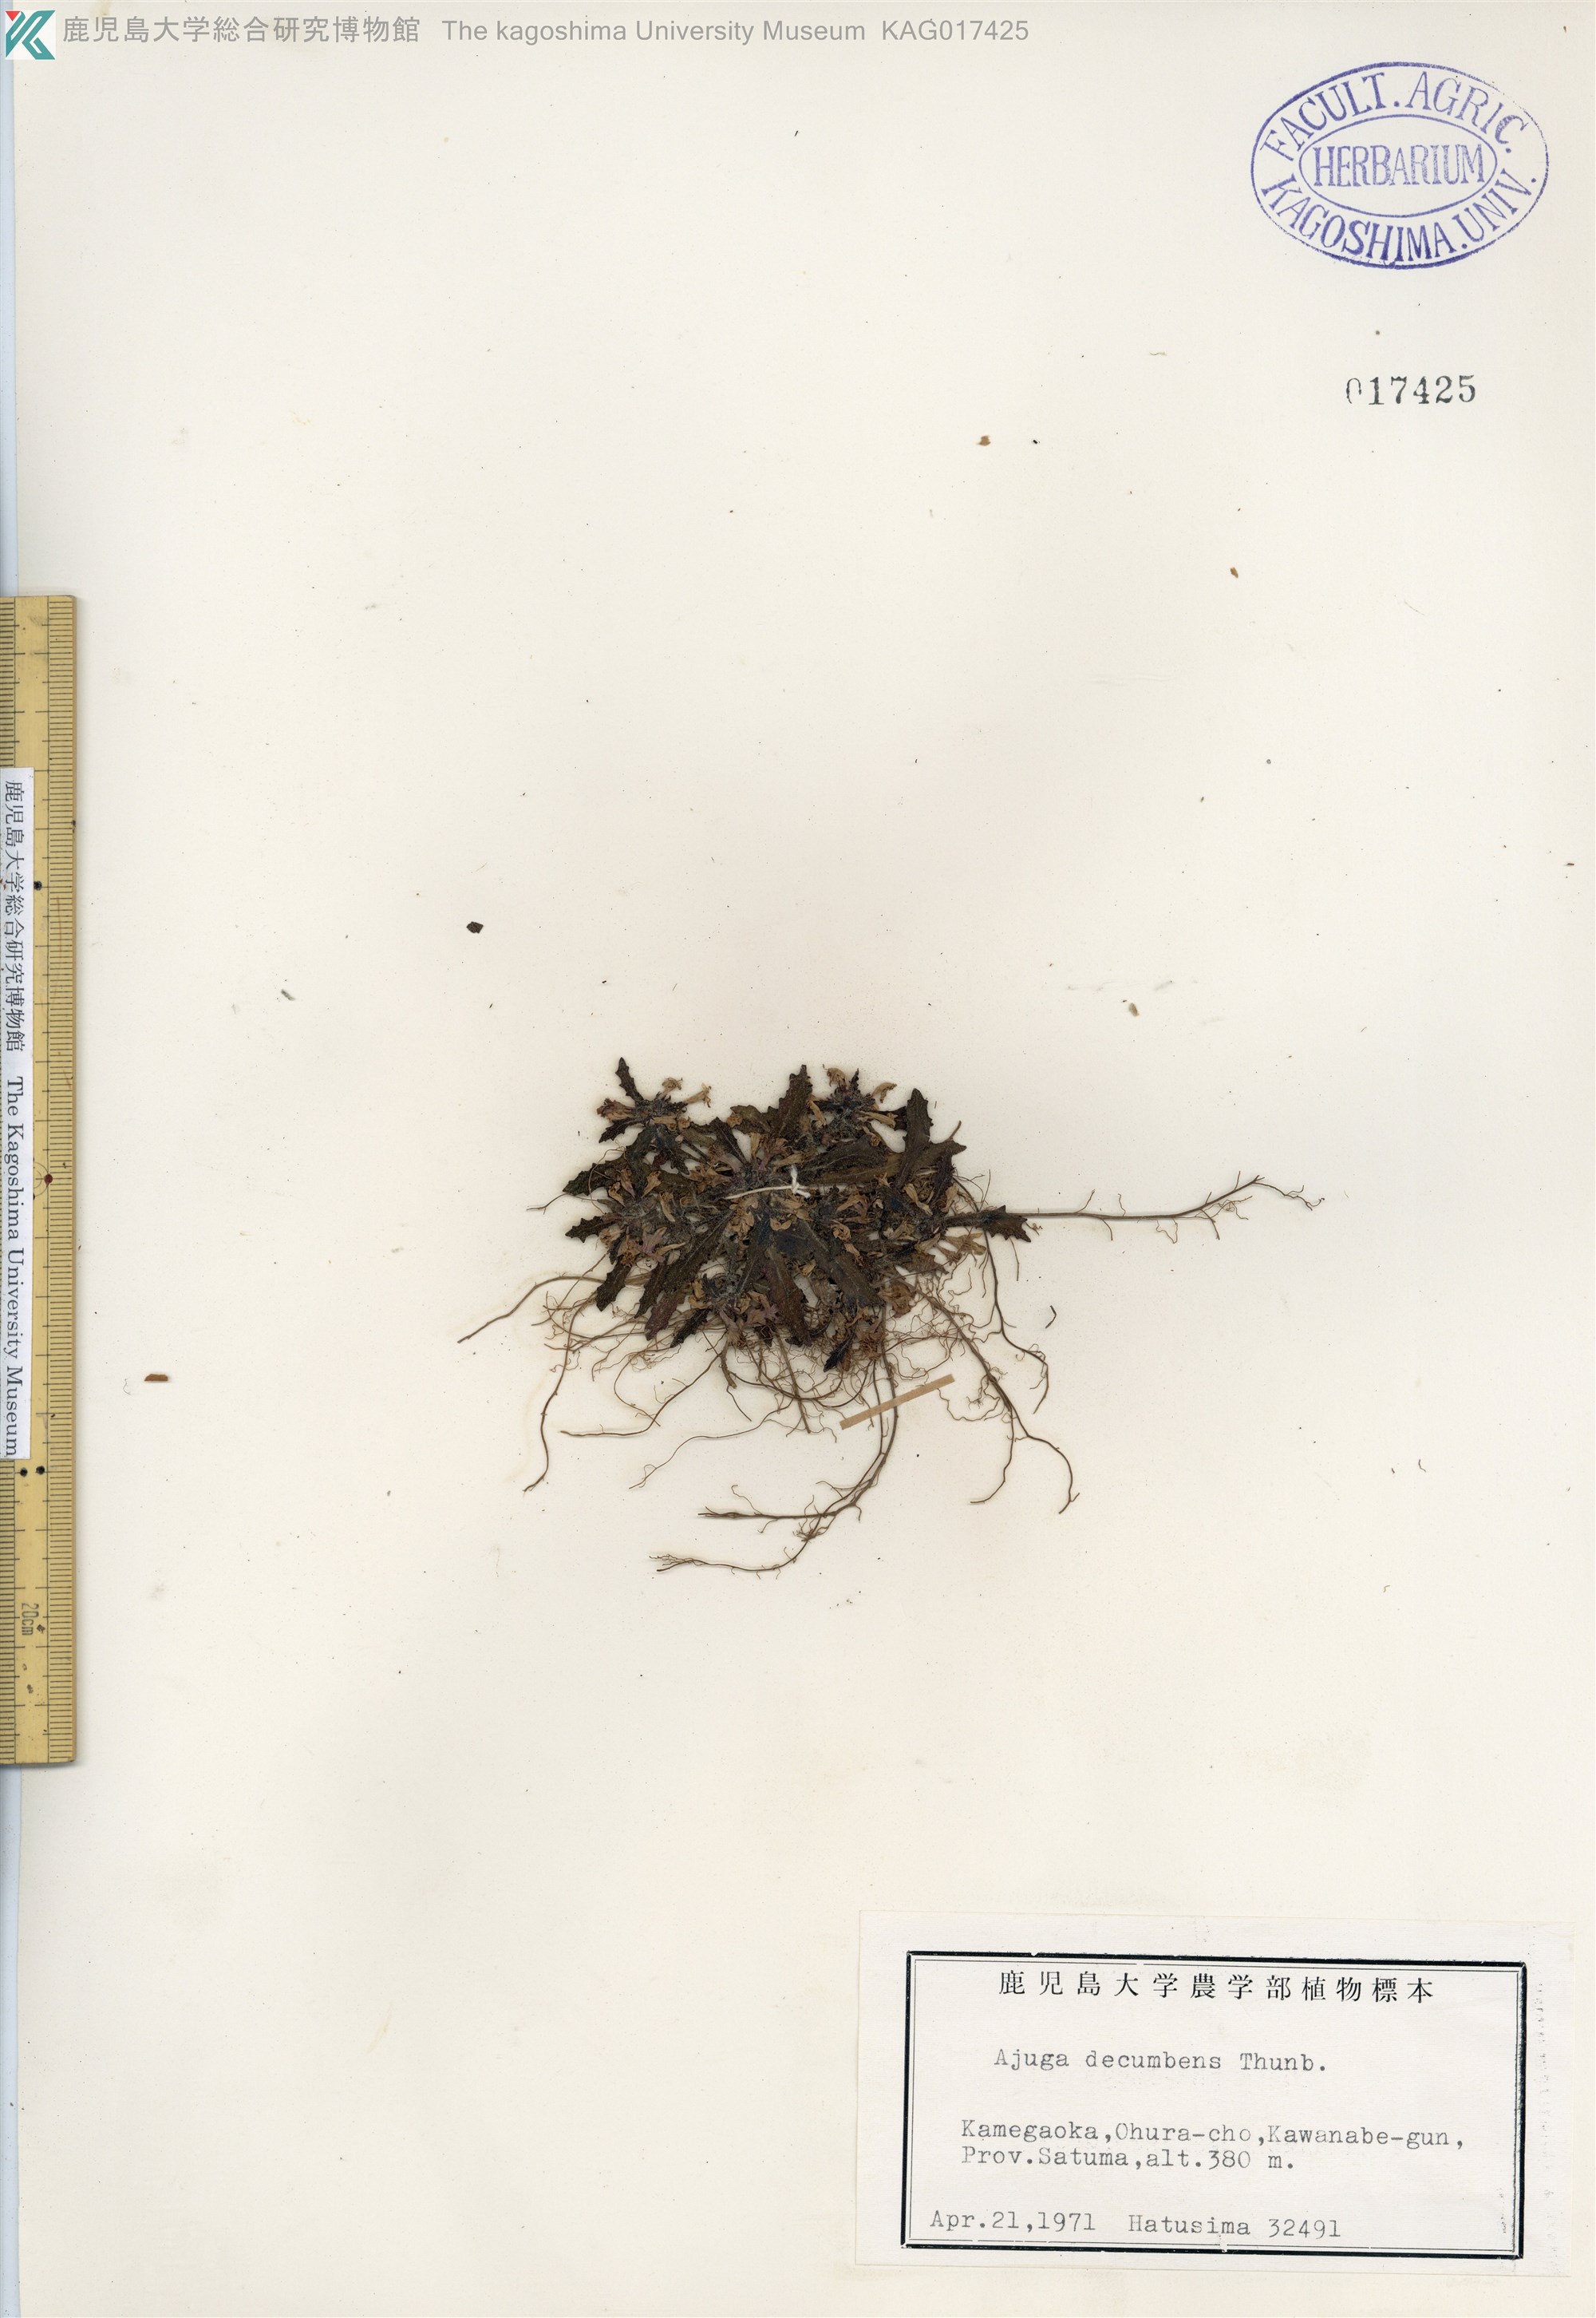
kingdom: Plantae
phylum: Tracheophyta
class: Magnoliopsida
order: Lamiales
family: Lamiaceae
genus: Ajuga
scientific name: Ajuga decumbens
